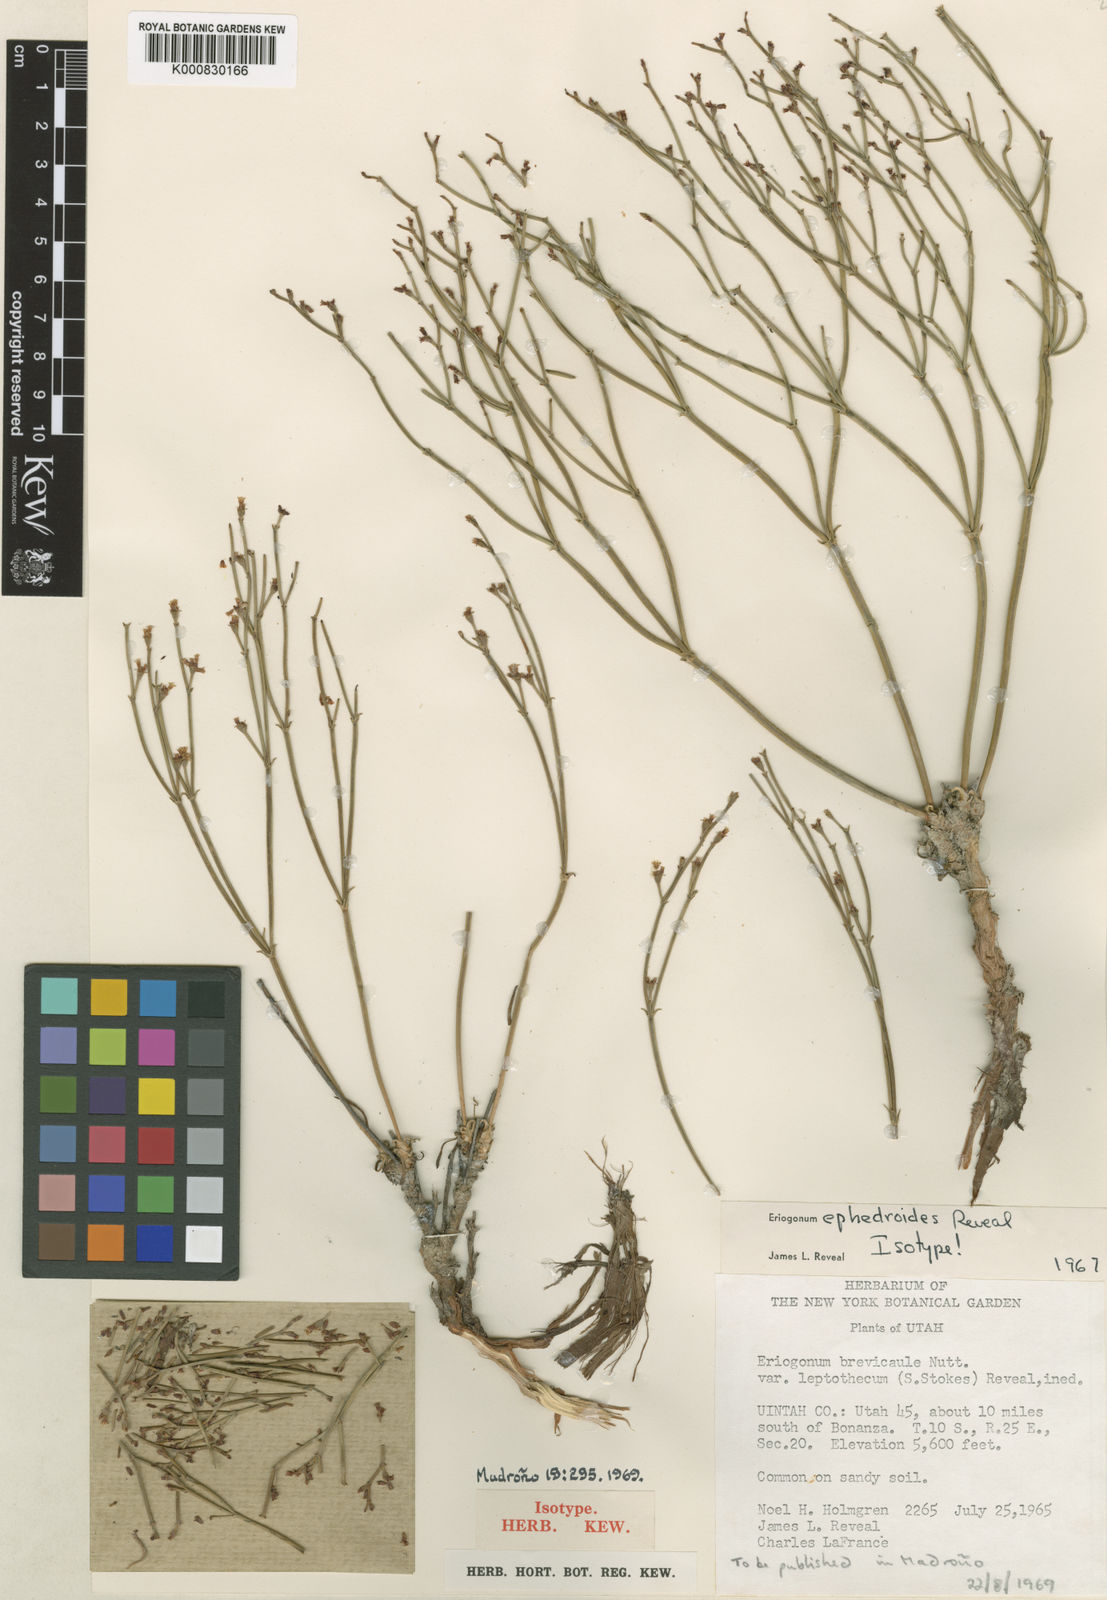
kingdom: Plantae
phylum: Tracheophyta
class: Magnoliopsida
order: Caryophyllales
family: Polygonaceae
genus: Eriogonum
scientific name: Eriogonum ephedroides
